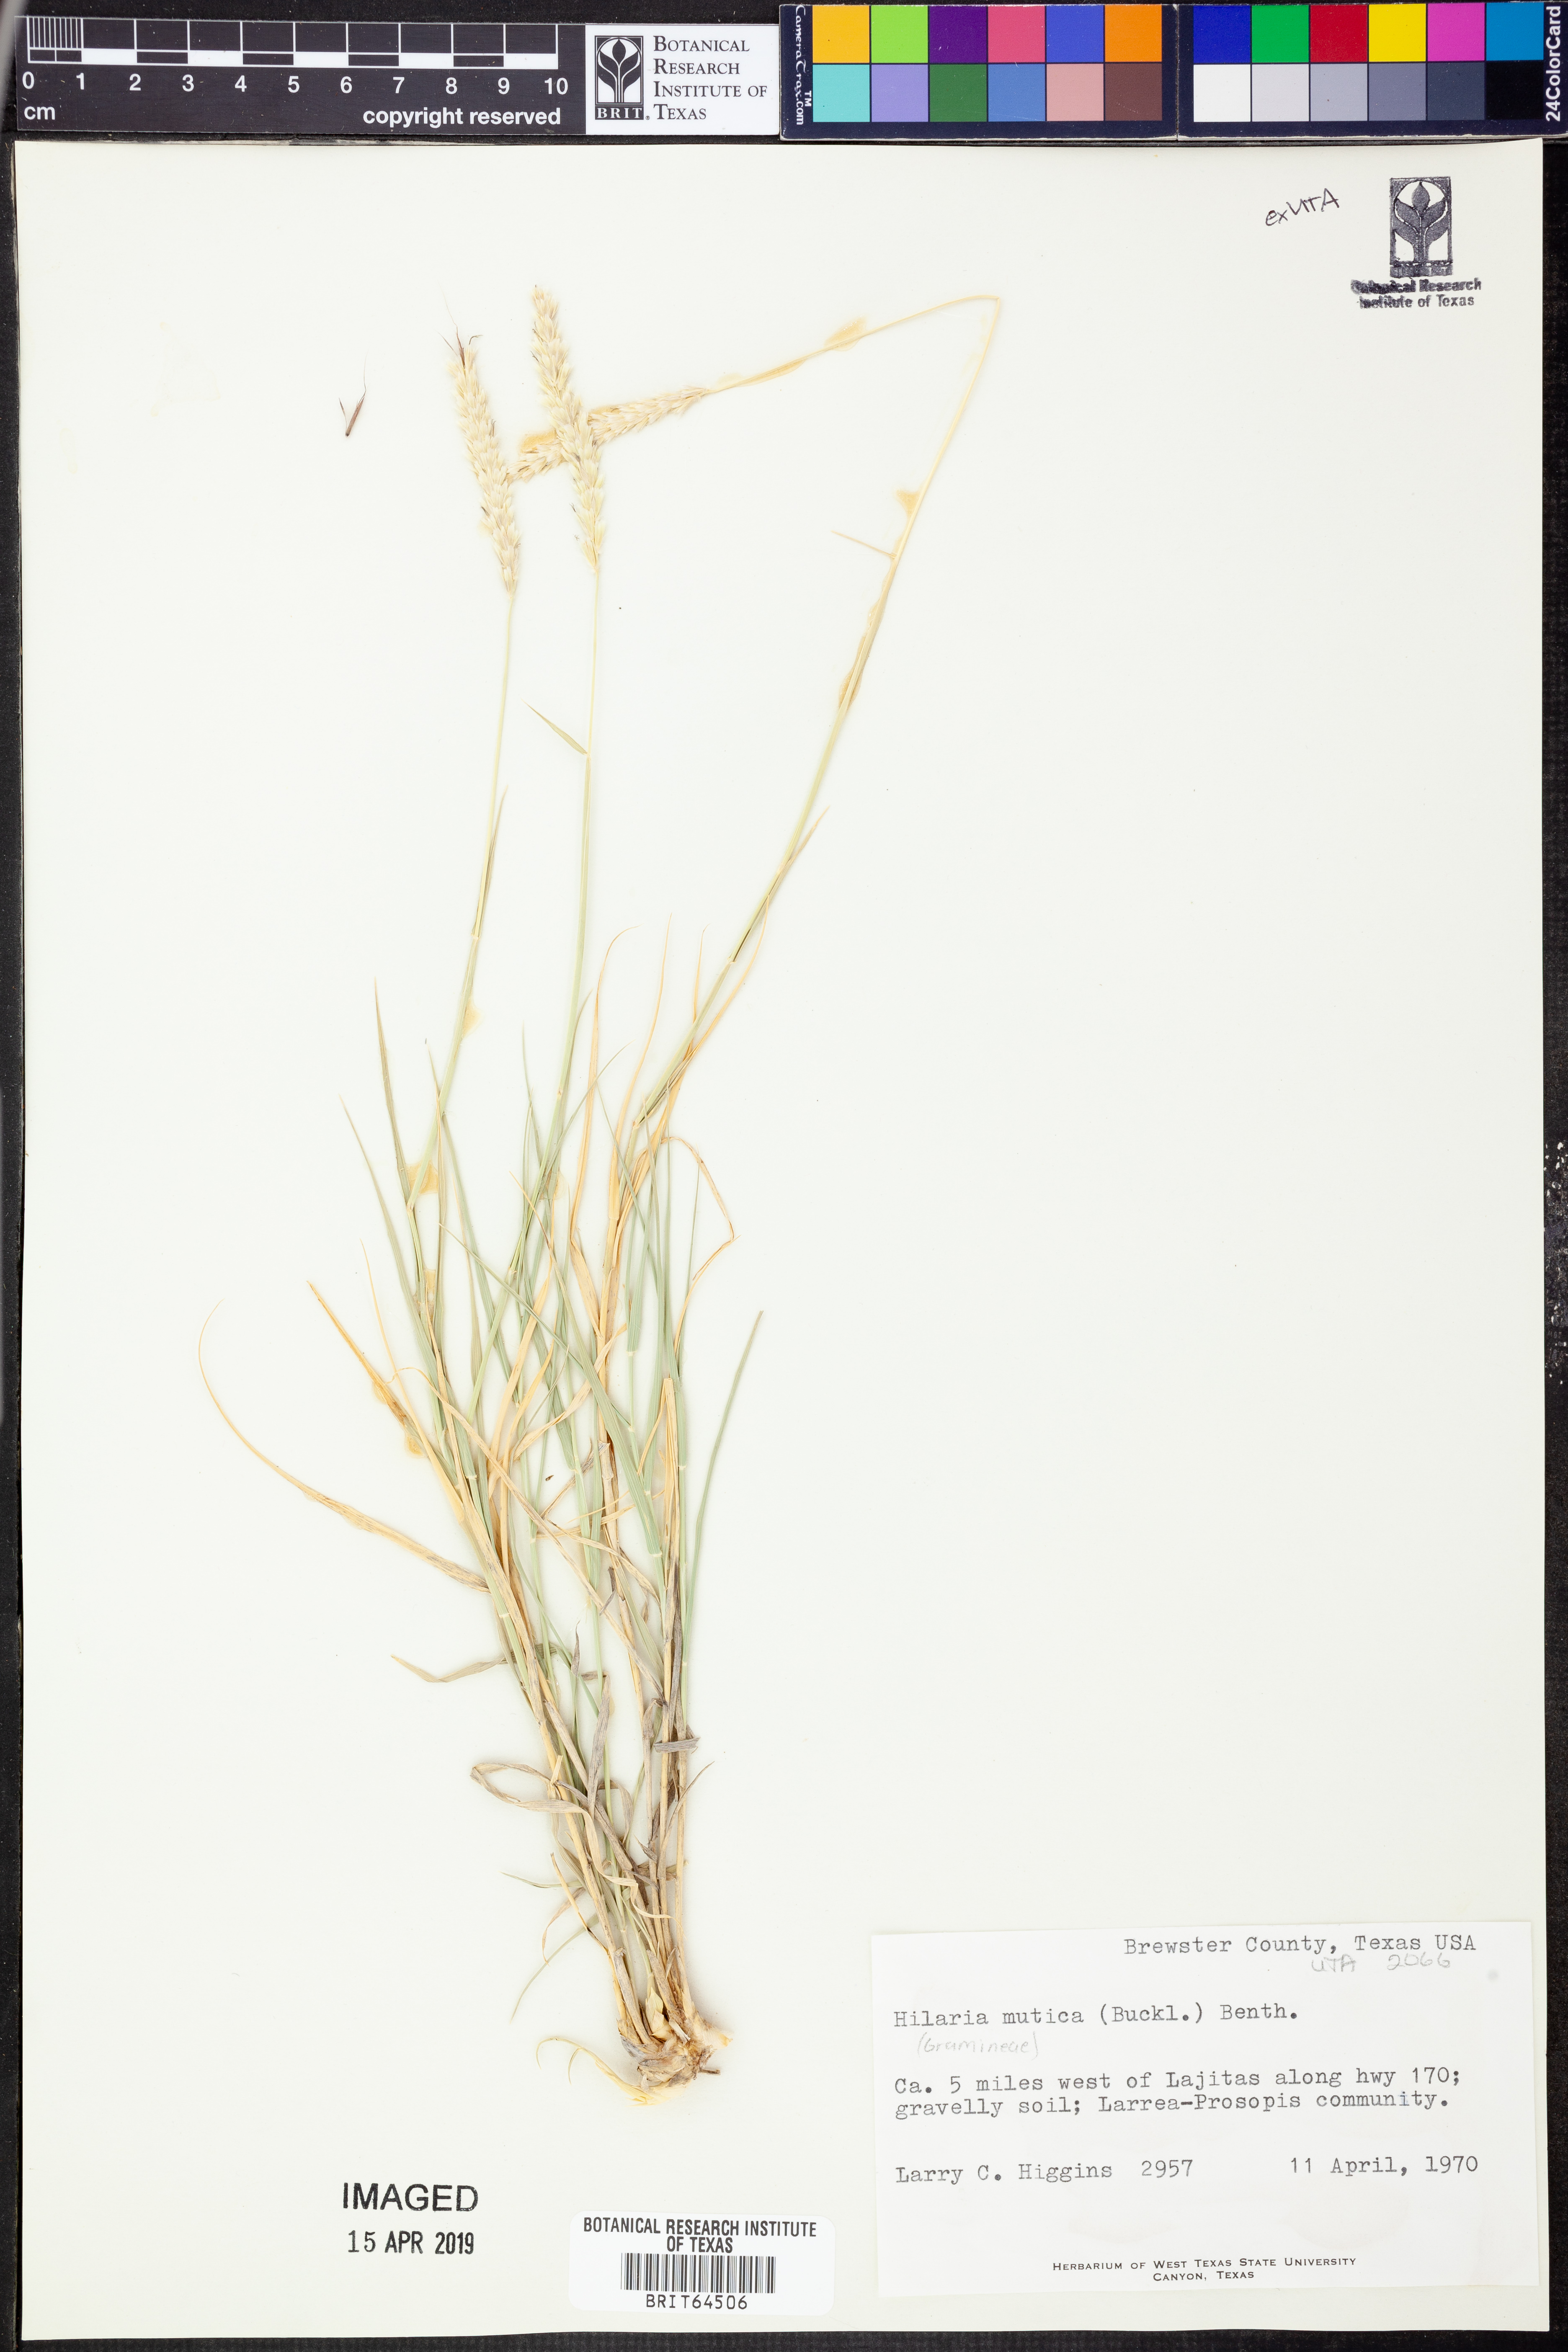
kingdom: Plantae
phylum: Tracheophyta
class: Liliopsida
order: Poales
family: Poaceae
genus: Hilaria
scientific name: Hilaria mutica
